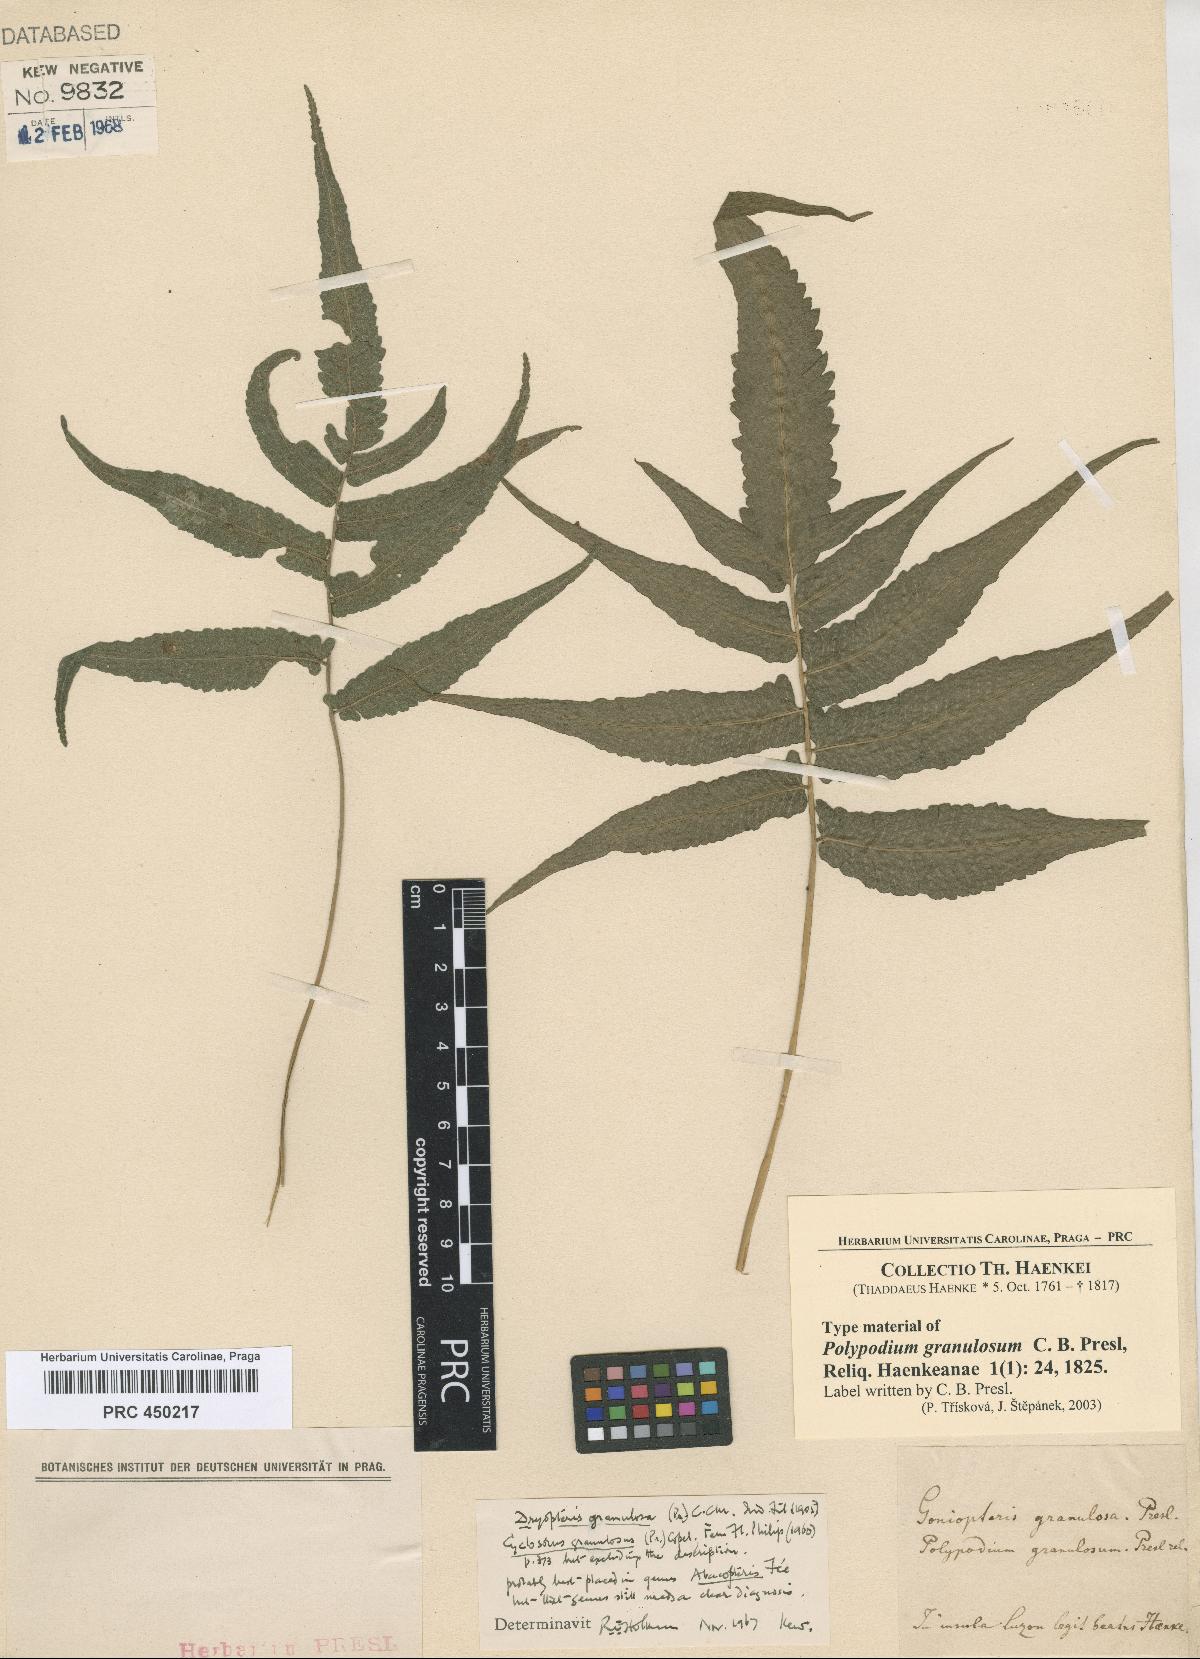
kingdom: Plantae
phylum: Tracheophyta
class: Polypodiopsida
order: Polypodiales
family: Thelypteridaceae
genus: Pronephrium
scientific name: Pronephrium granulosum
